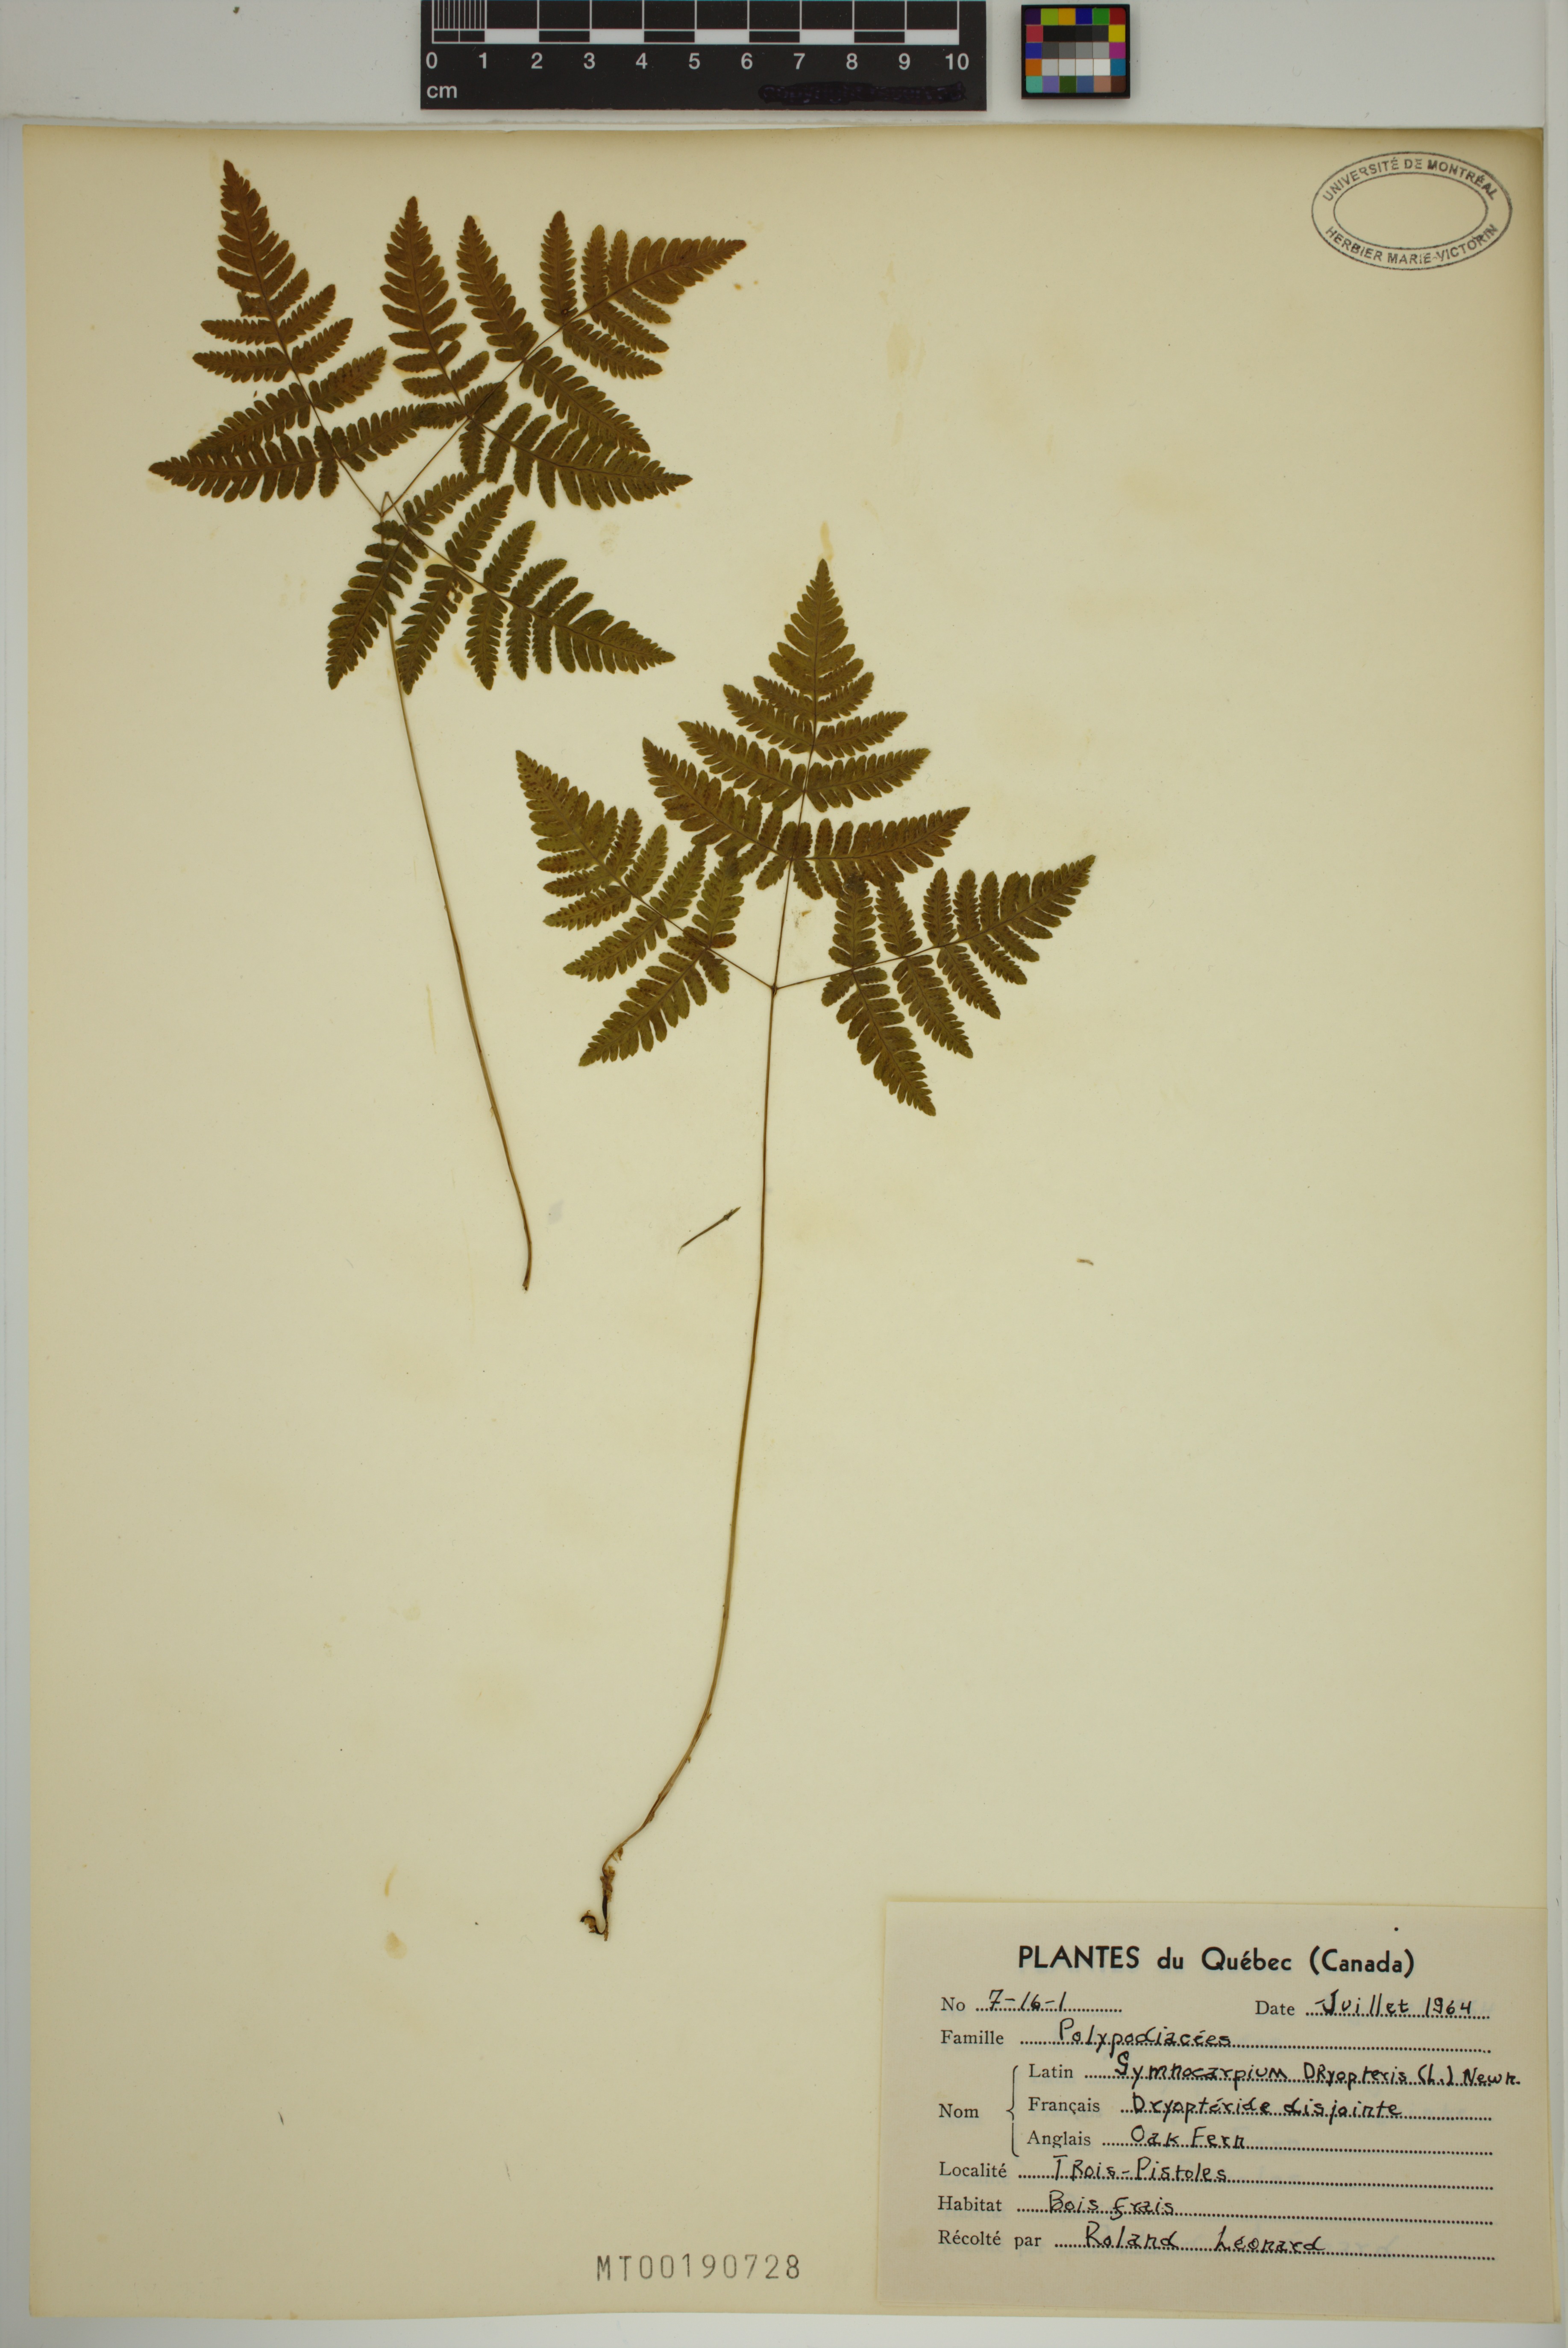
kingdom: Plantae
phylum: Tracheophyta
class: Polypodiopsida
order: Polypodiales
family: Cystopteridaceae
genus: Gymnocarpium
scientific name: Gymnocarpium dryopteris
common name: Oak fern
